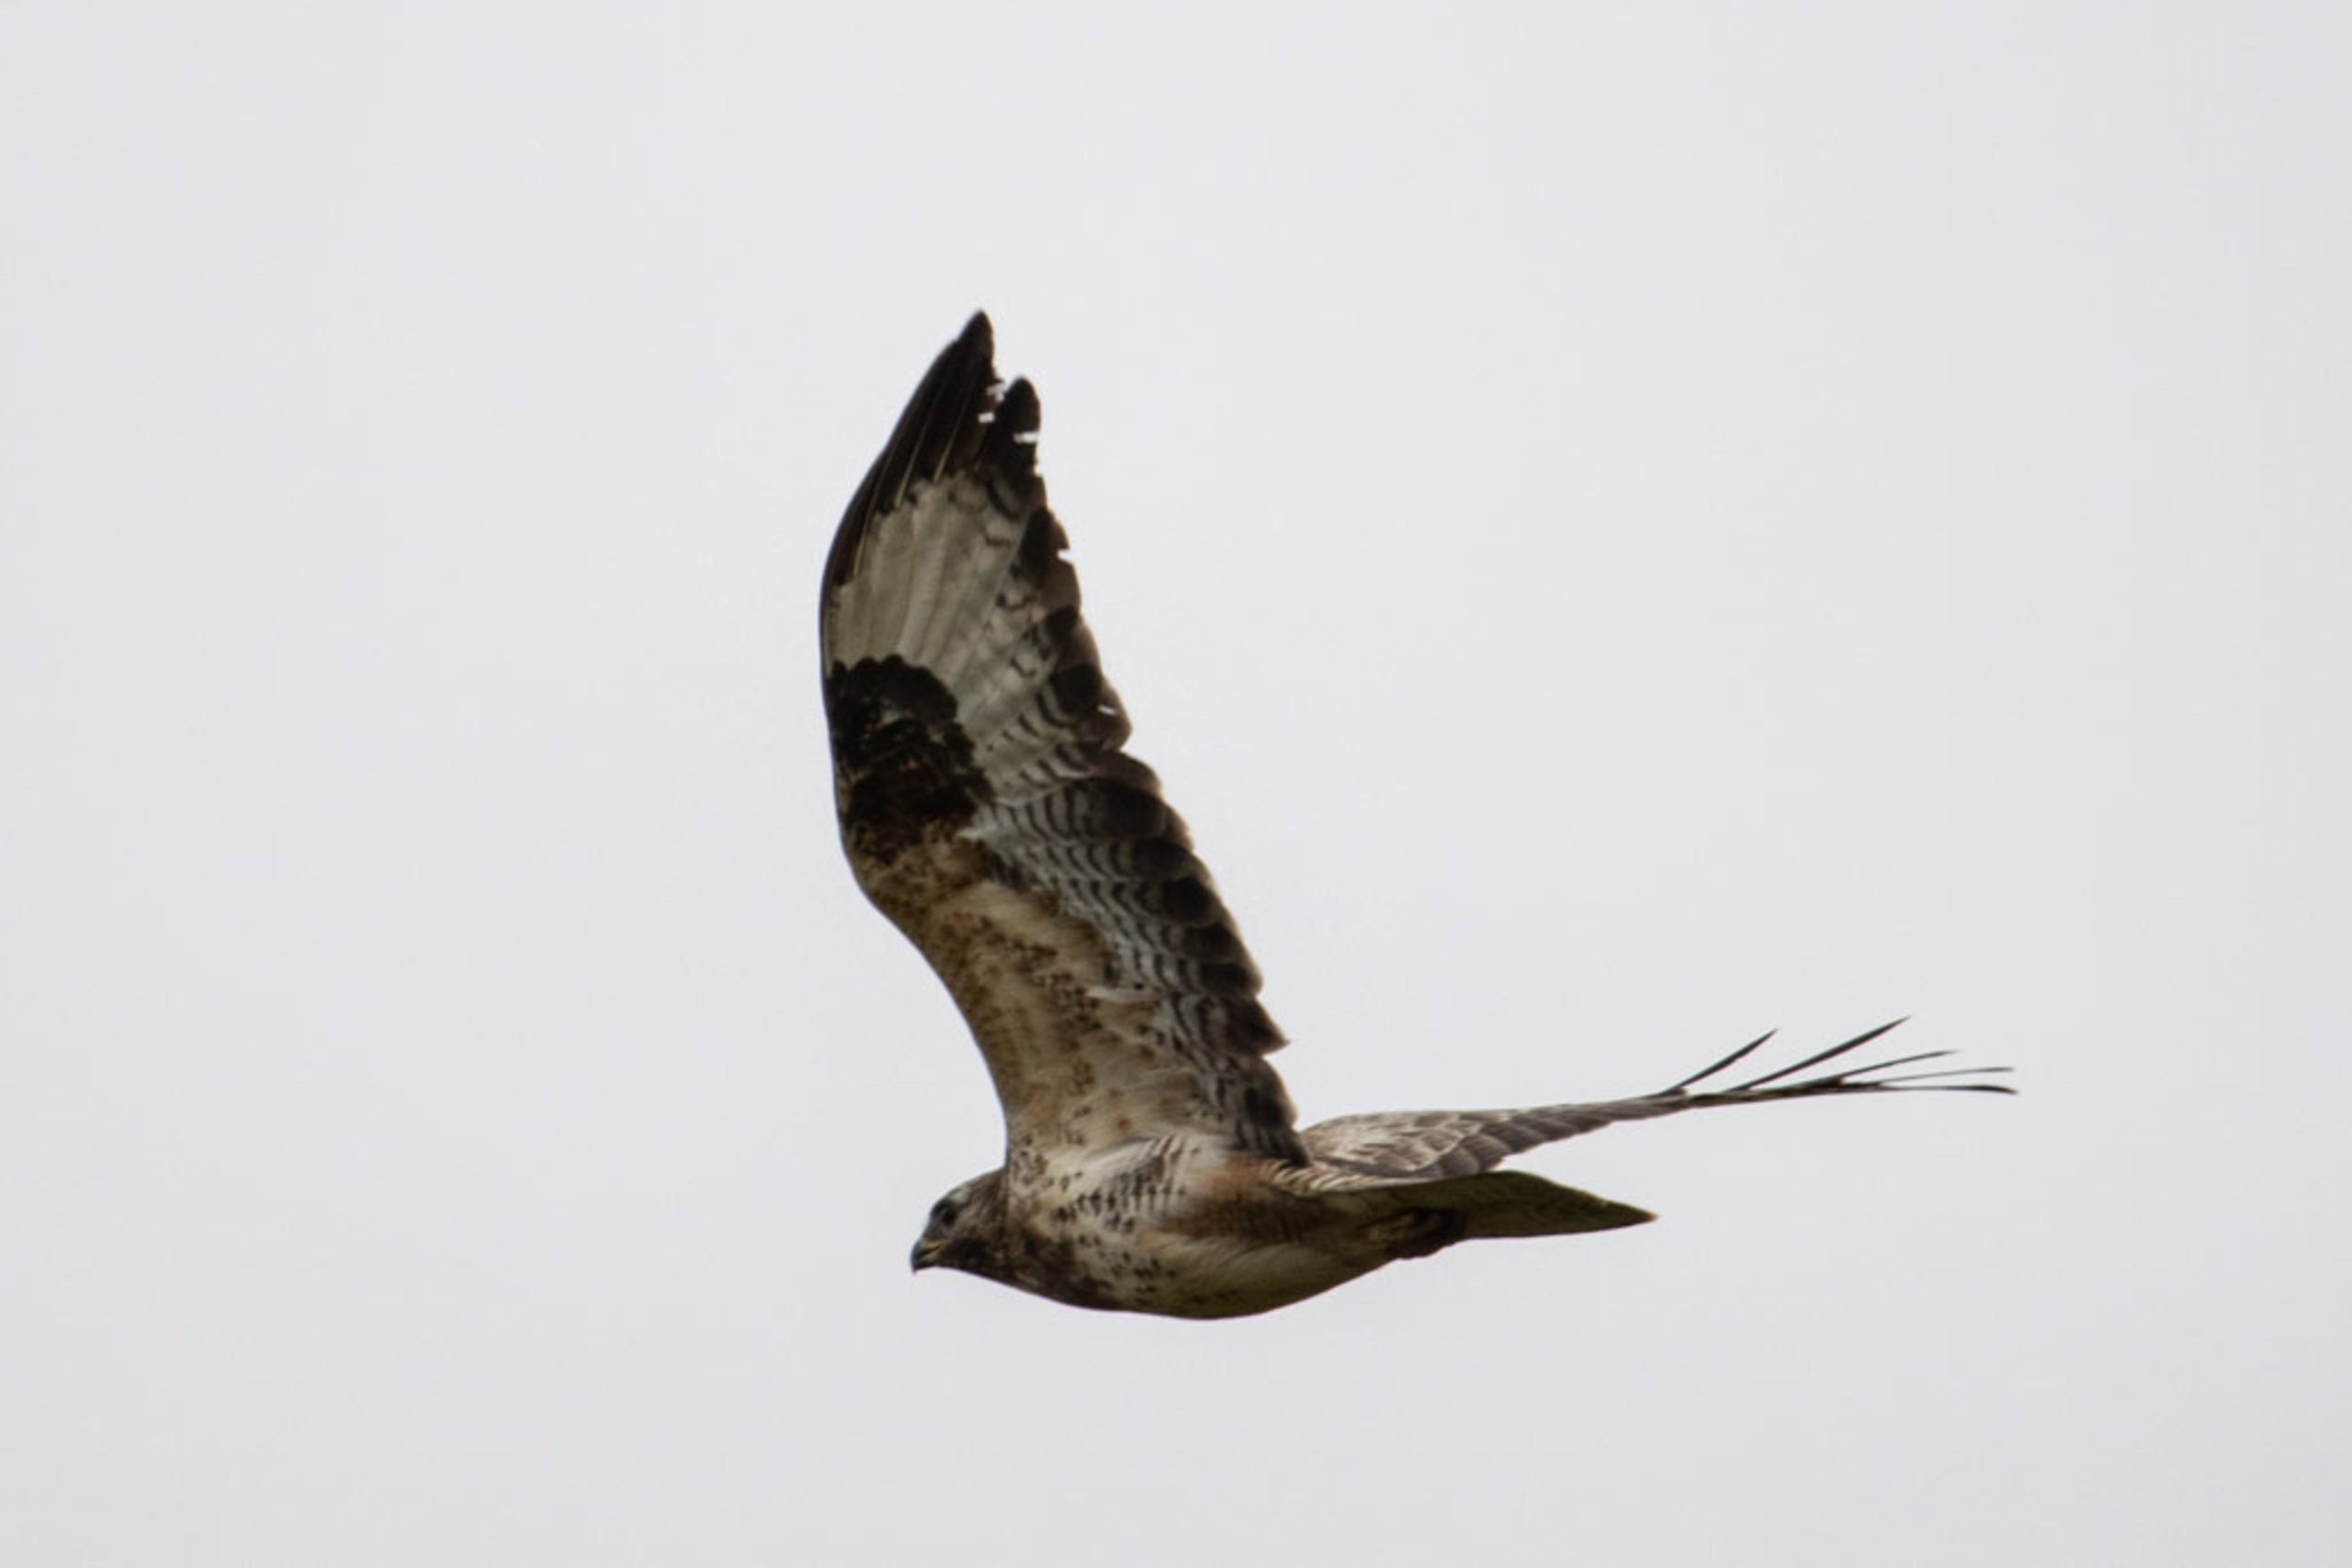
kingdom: Animalia
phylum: Chordata
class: Aves
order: Accipitriformes
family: Accipitridae
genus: Buteo
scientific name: Buteo buteo
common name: Musvåge
